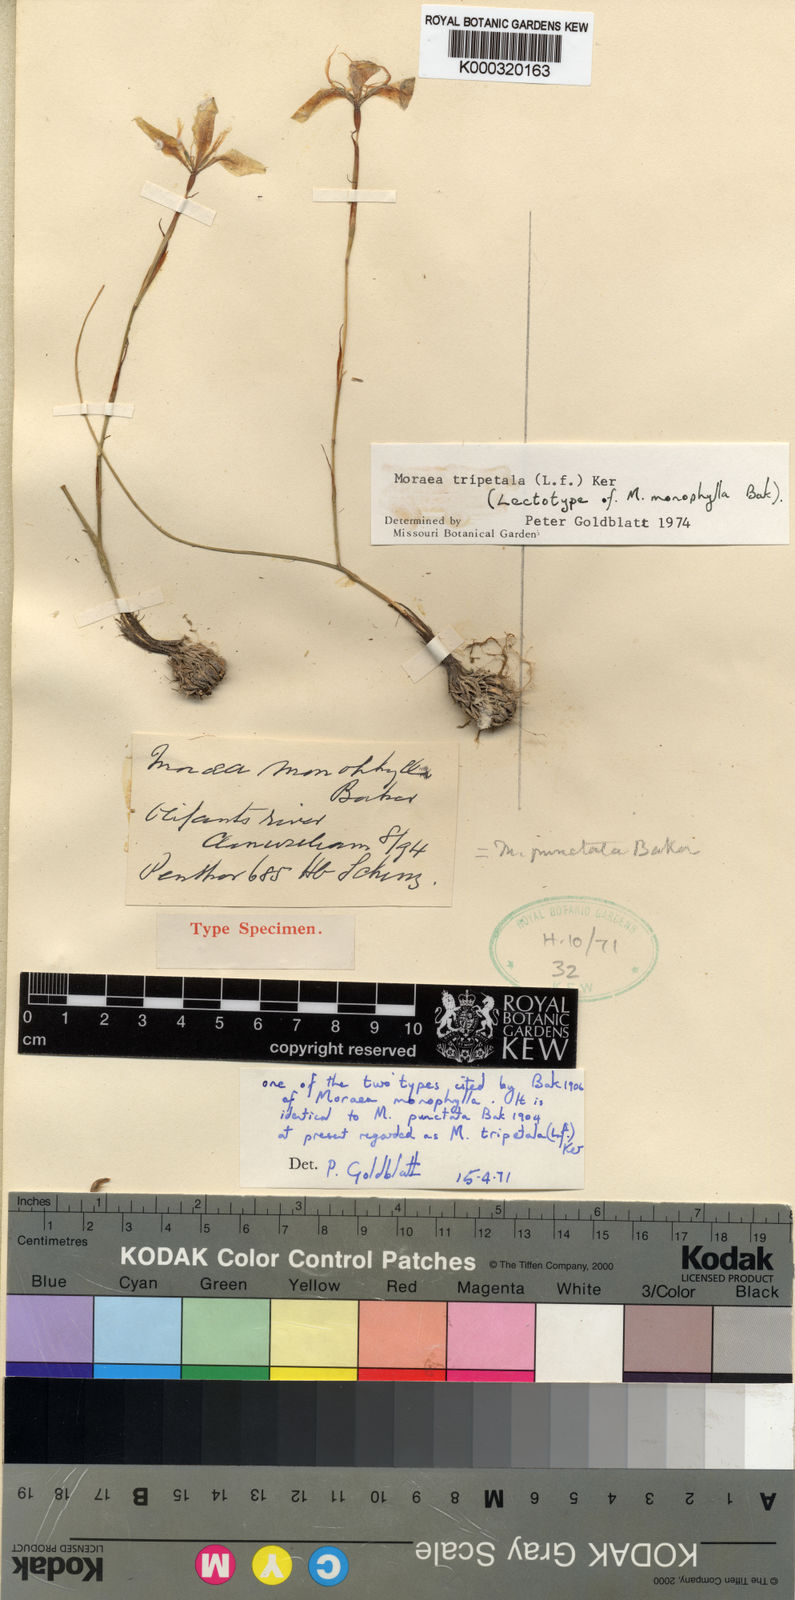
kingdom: Plantae
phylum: Tracheophyta
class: Liliopsida
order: Asparagales
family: Iridaceae
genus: Moraea
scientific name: Moraea tripetala
